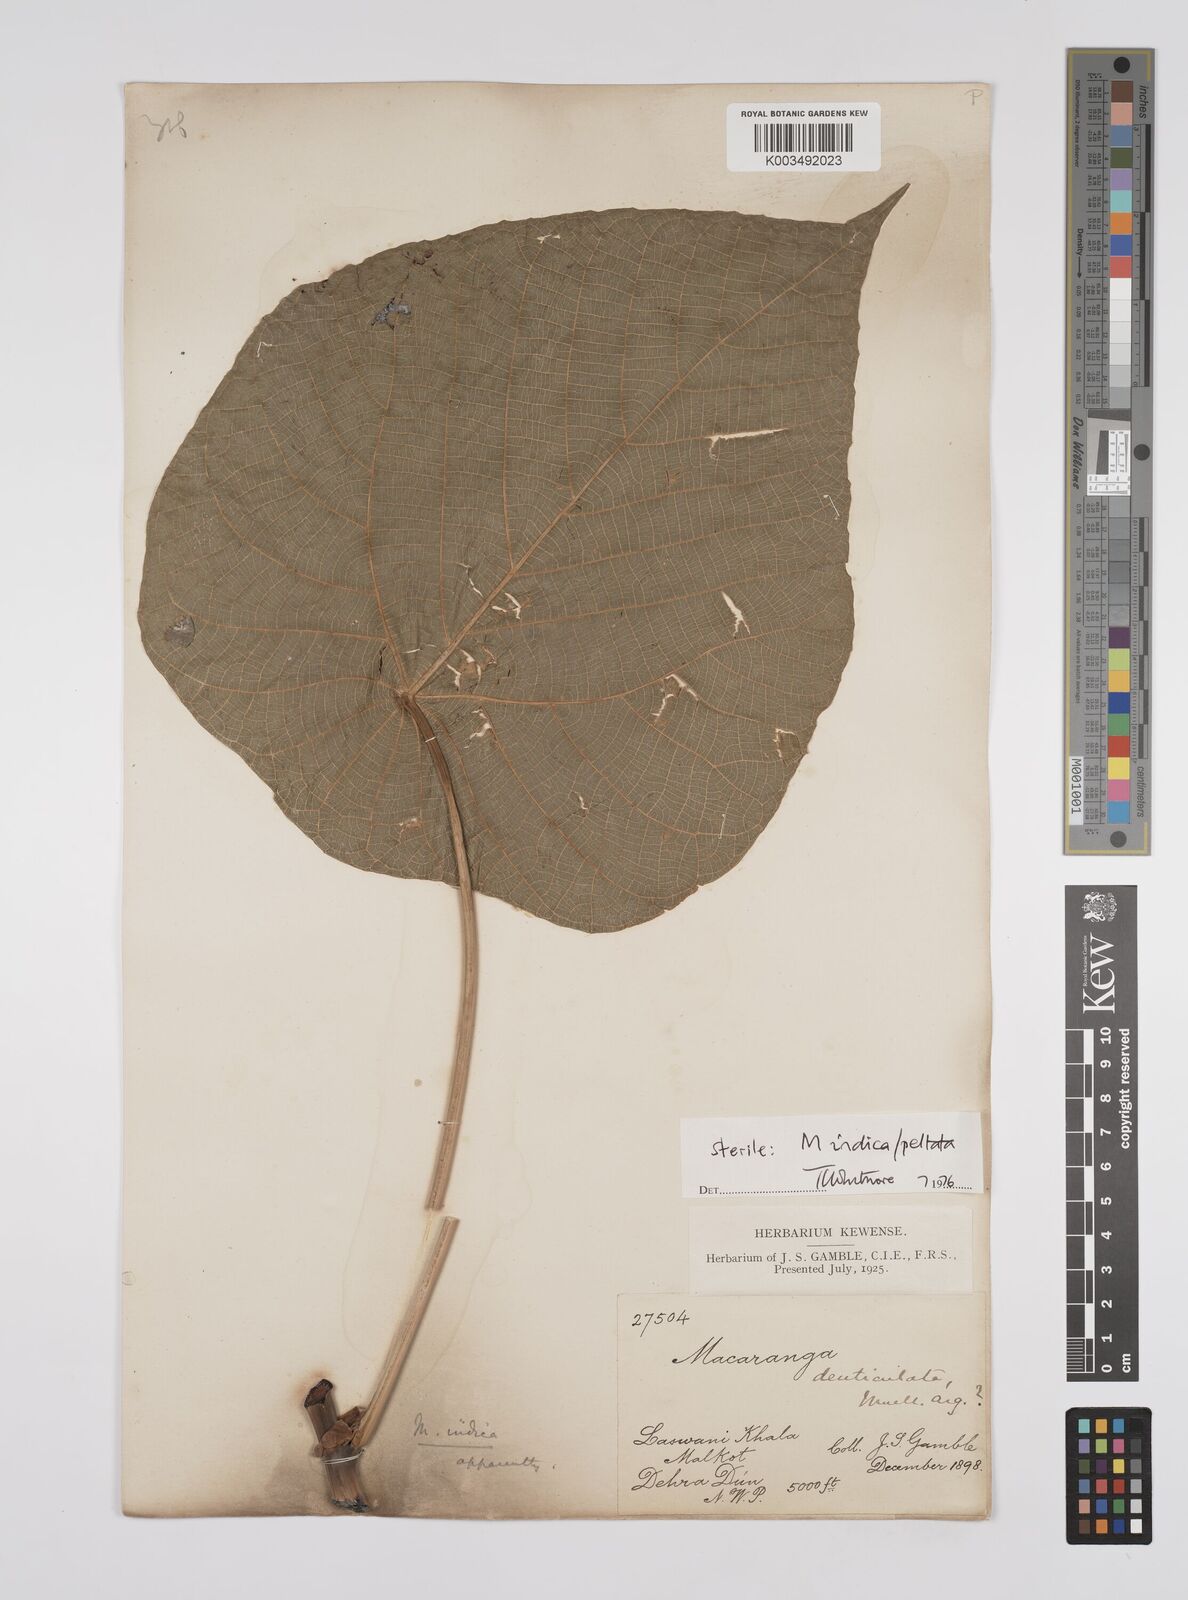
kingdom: Plantae
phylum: Tracheophyta
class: Magnoliopsida
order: Malpighiales
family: Euphorbiaceae
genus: Macaranga
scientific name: Macaranga indica
